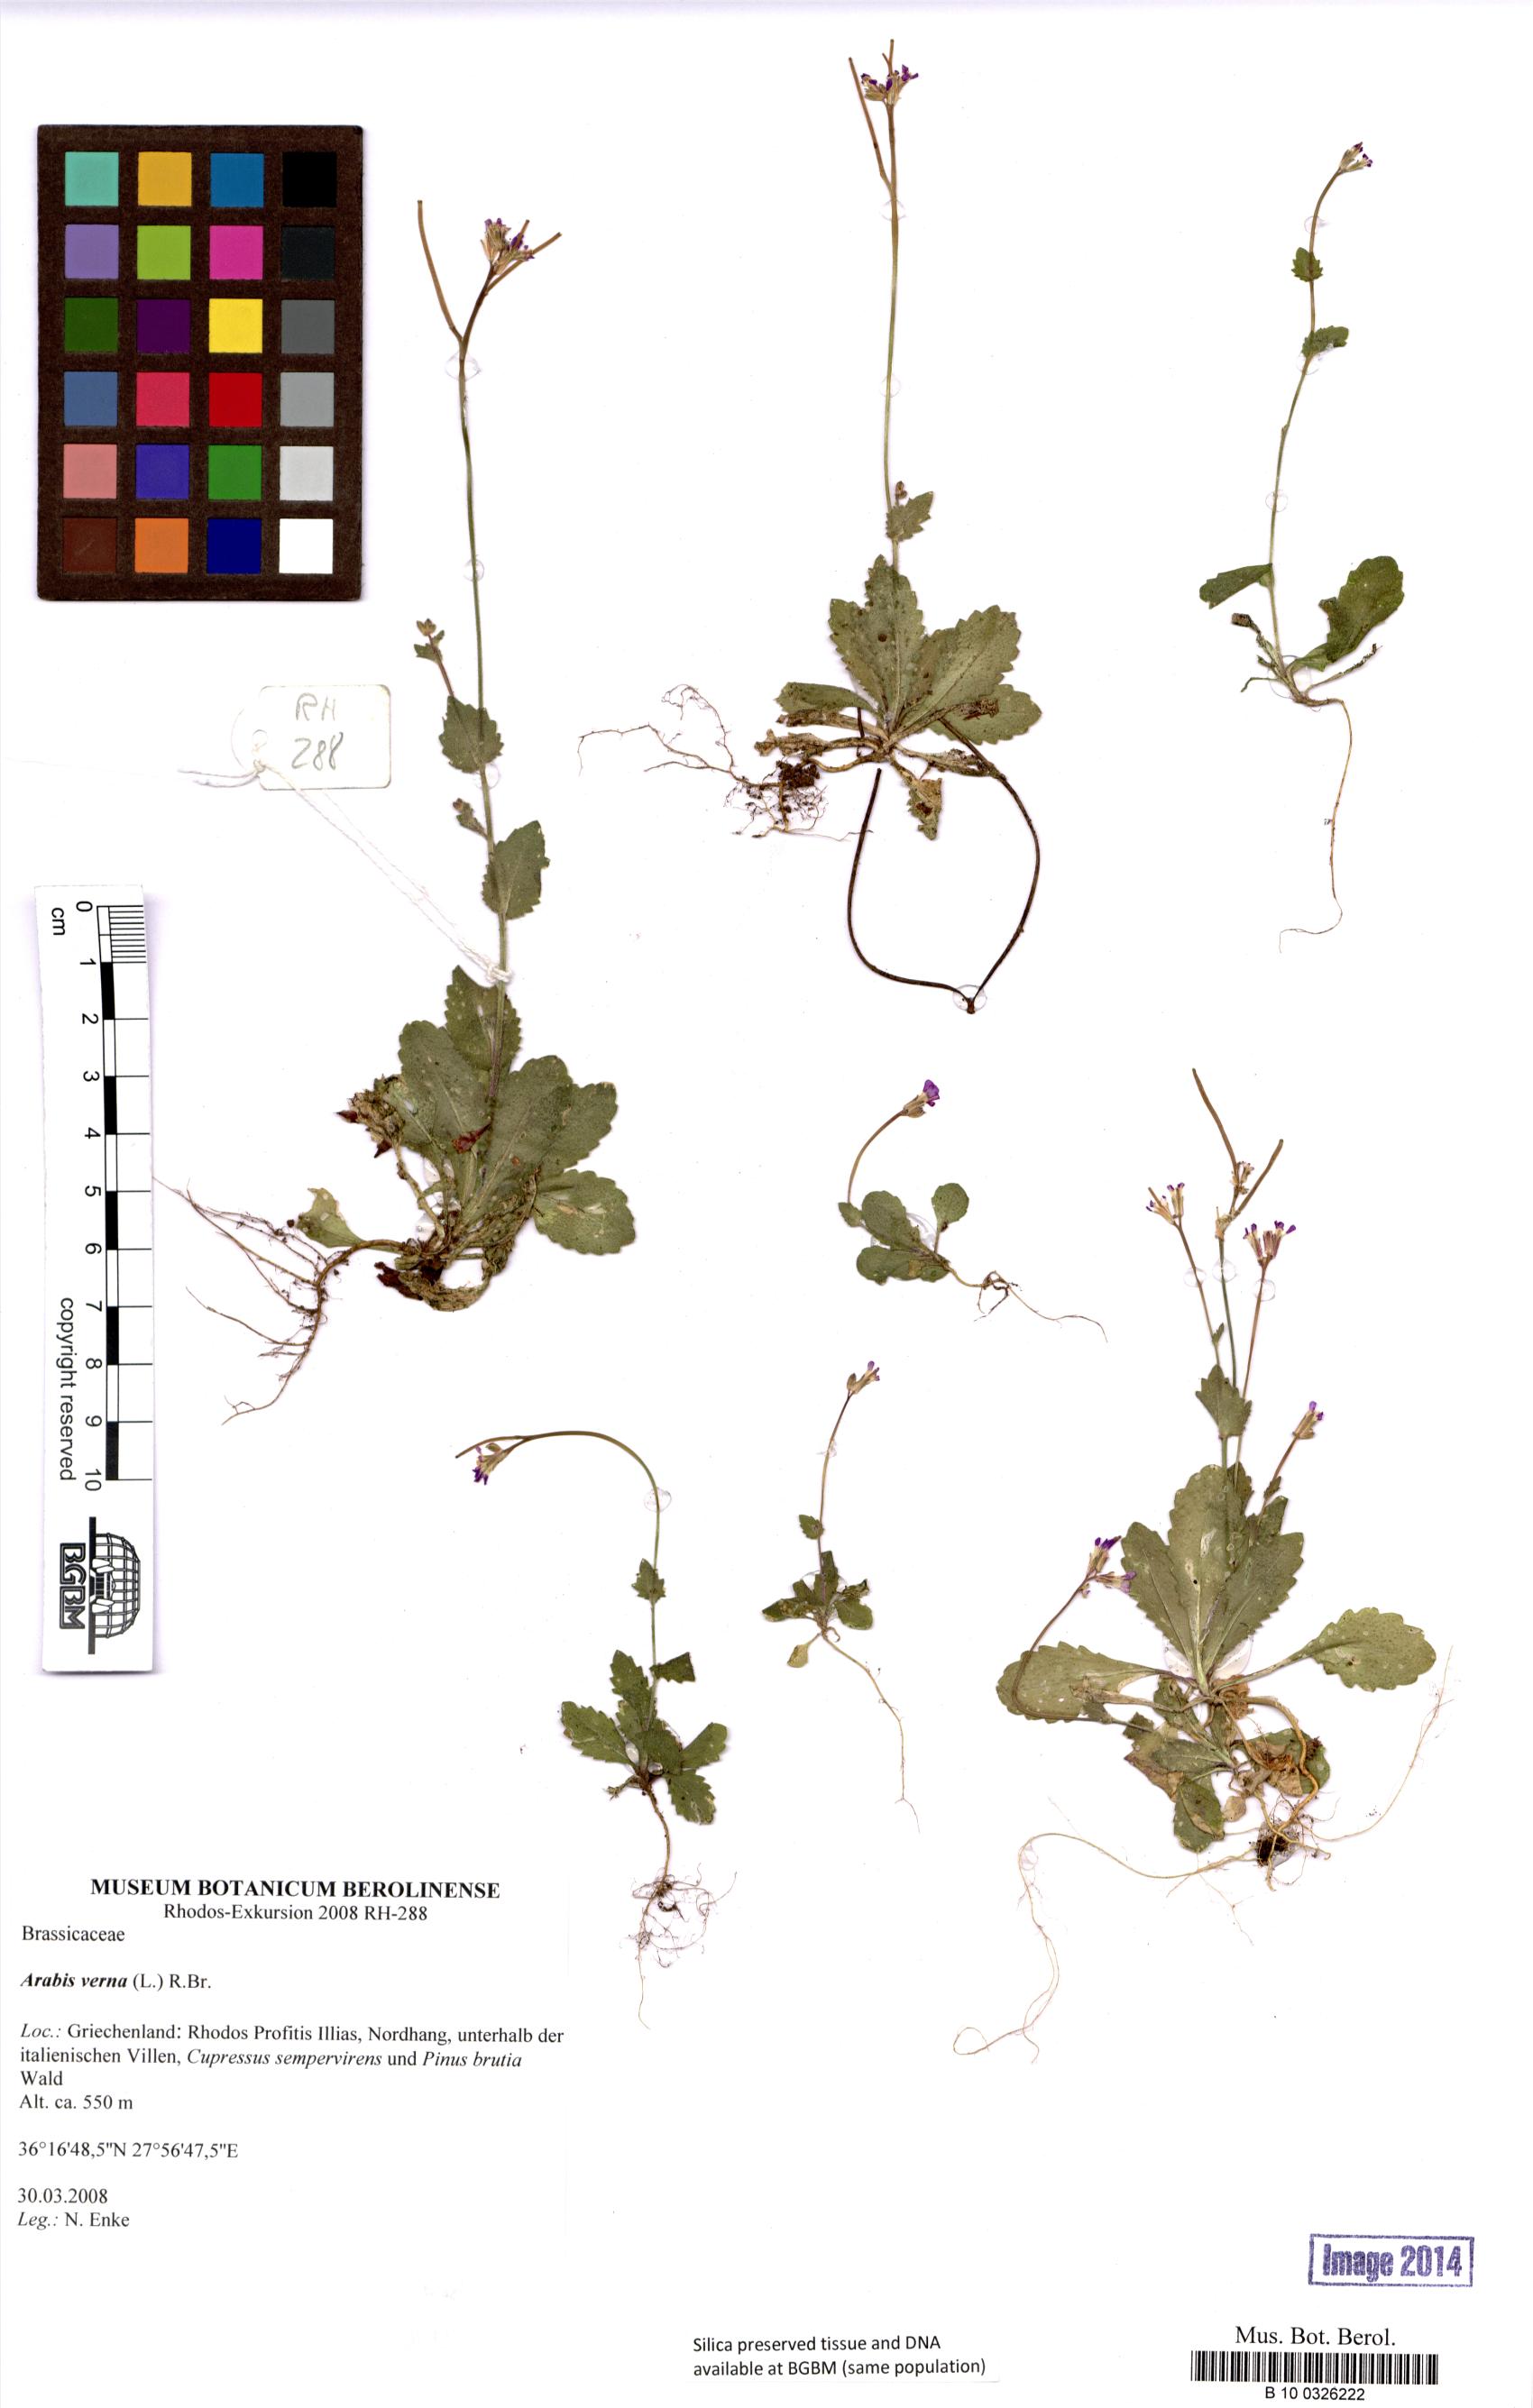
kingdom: Plantae
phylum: Tracheophyta
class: Magnoliopsida
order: Brassicales
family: Brassicaceae
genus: Arabis
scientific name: Arabis verna
